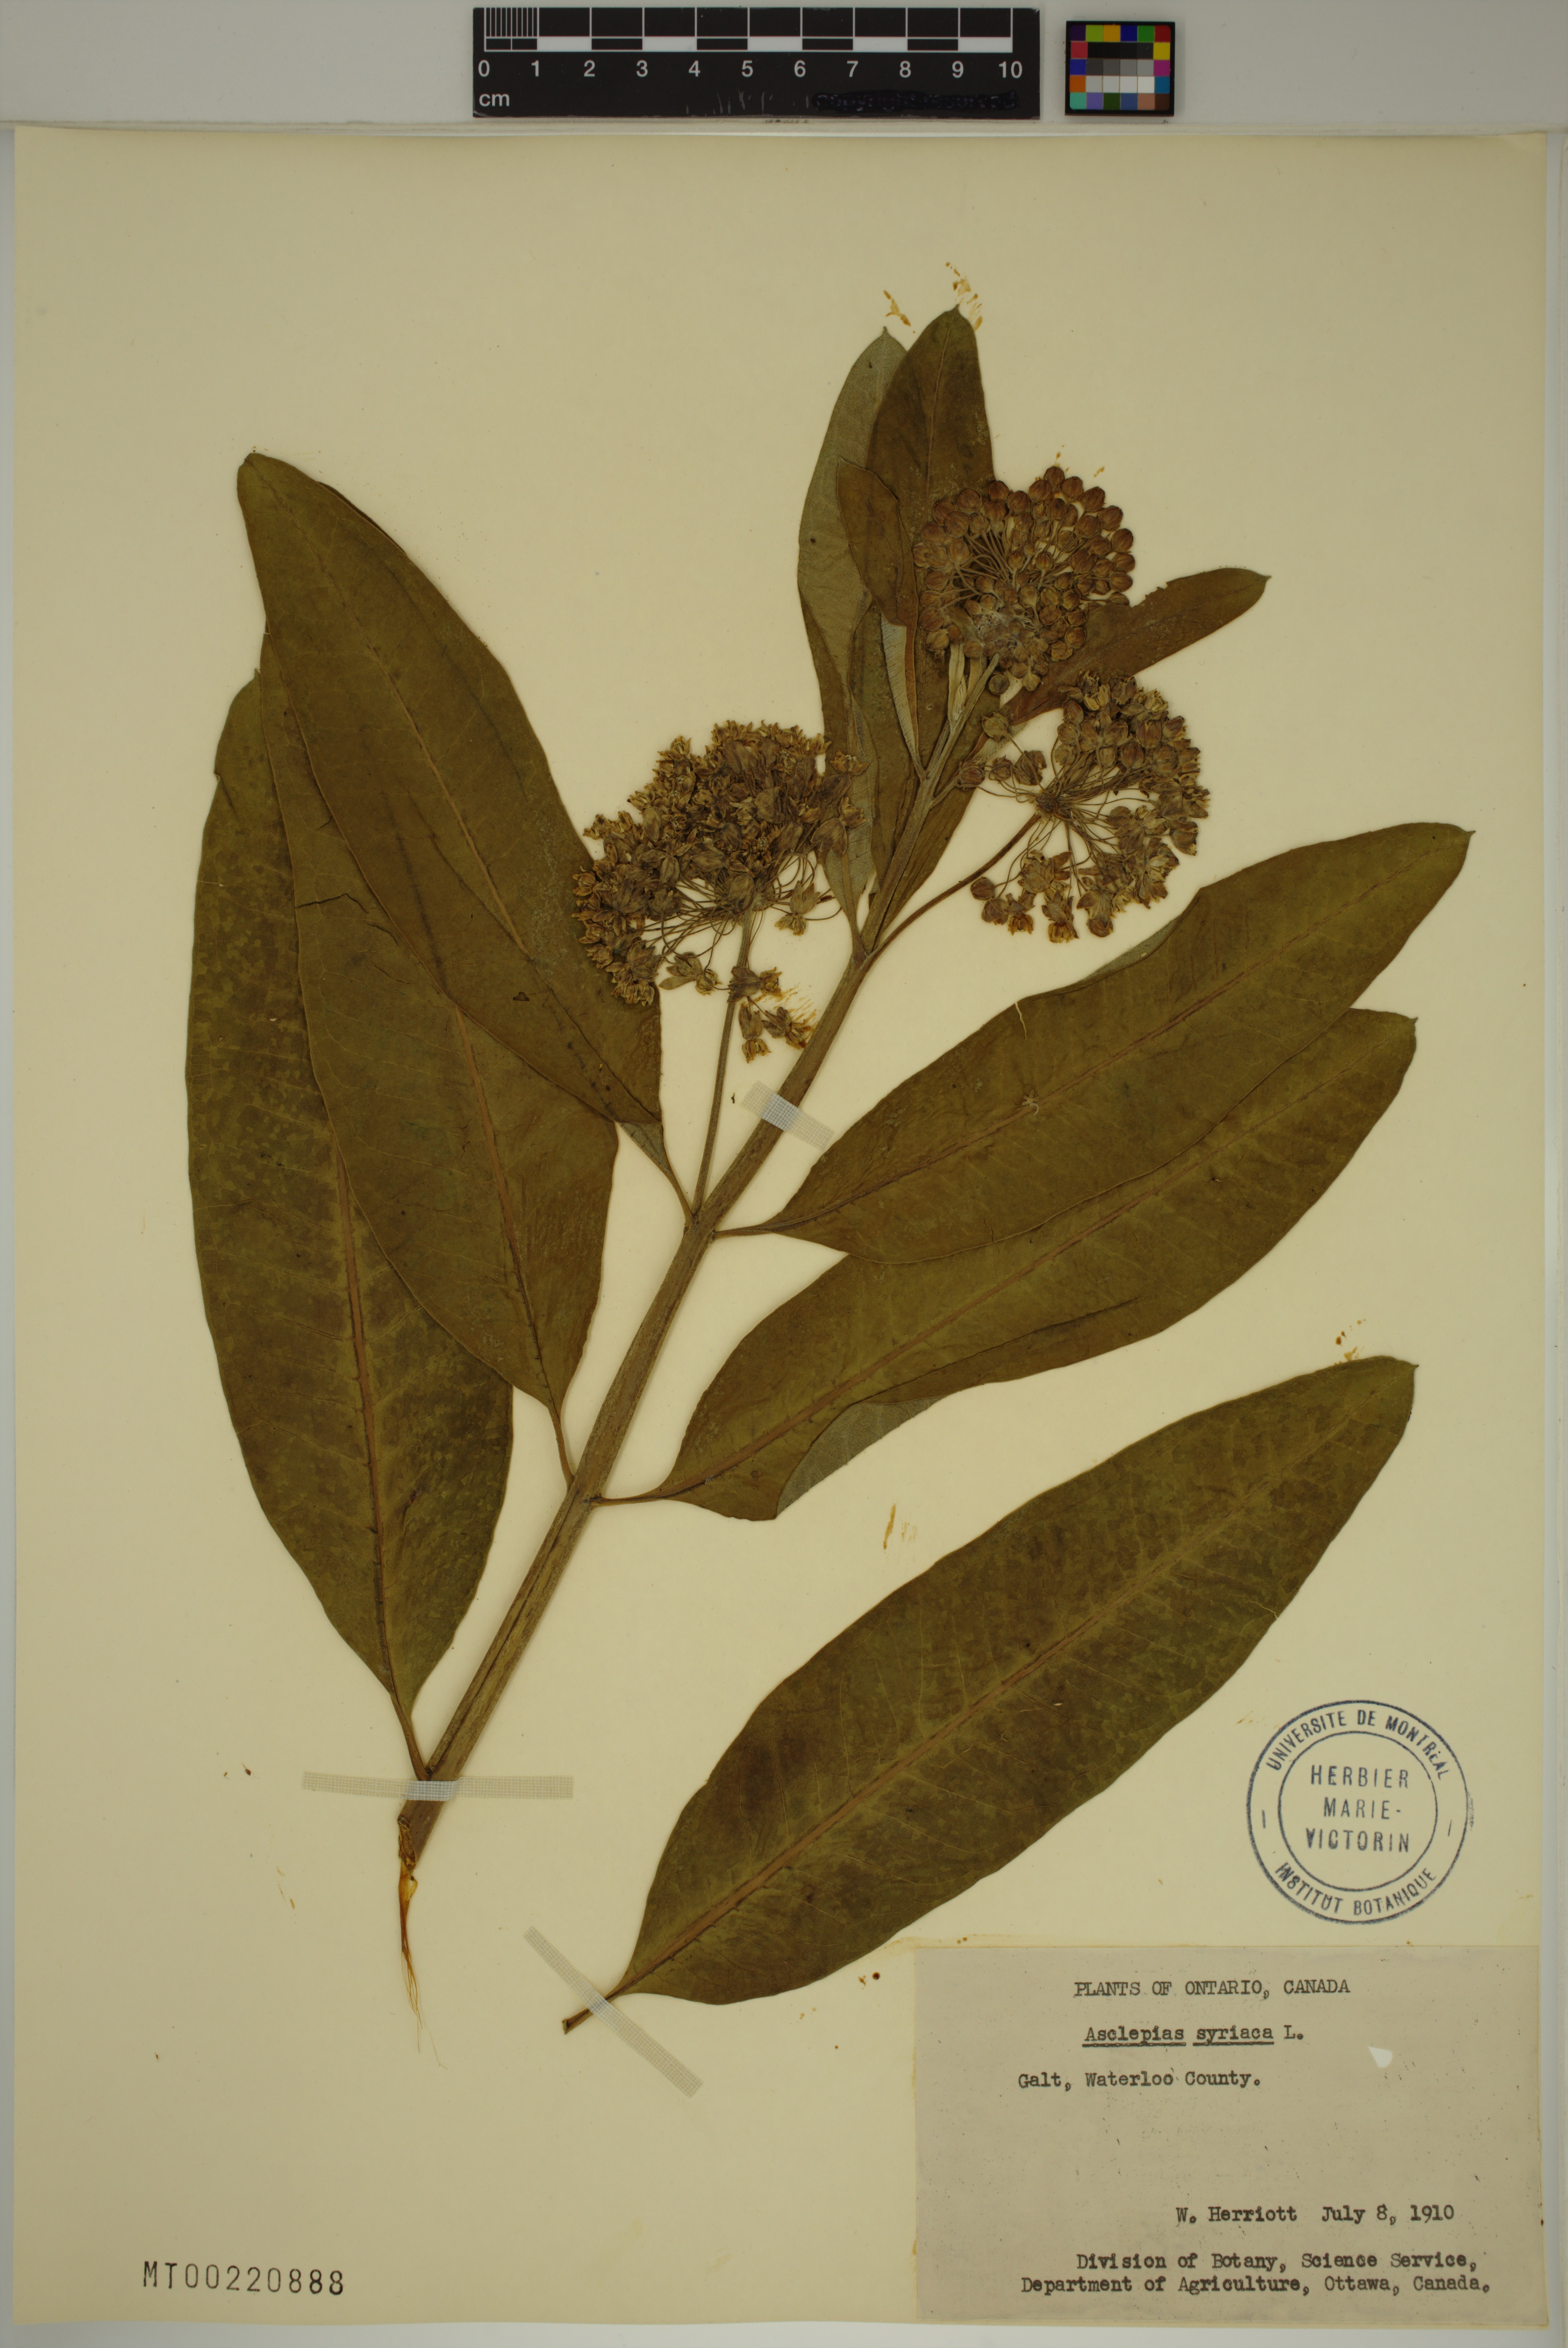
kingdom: Plantae
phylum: Tracheophyta
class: Magnoliopsida
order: Gentianales
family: Apocynaceae
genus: Asclepias
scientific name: Asclepias syriaca
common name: Common milkweed
